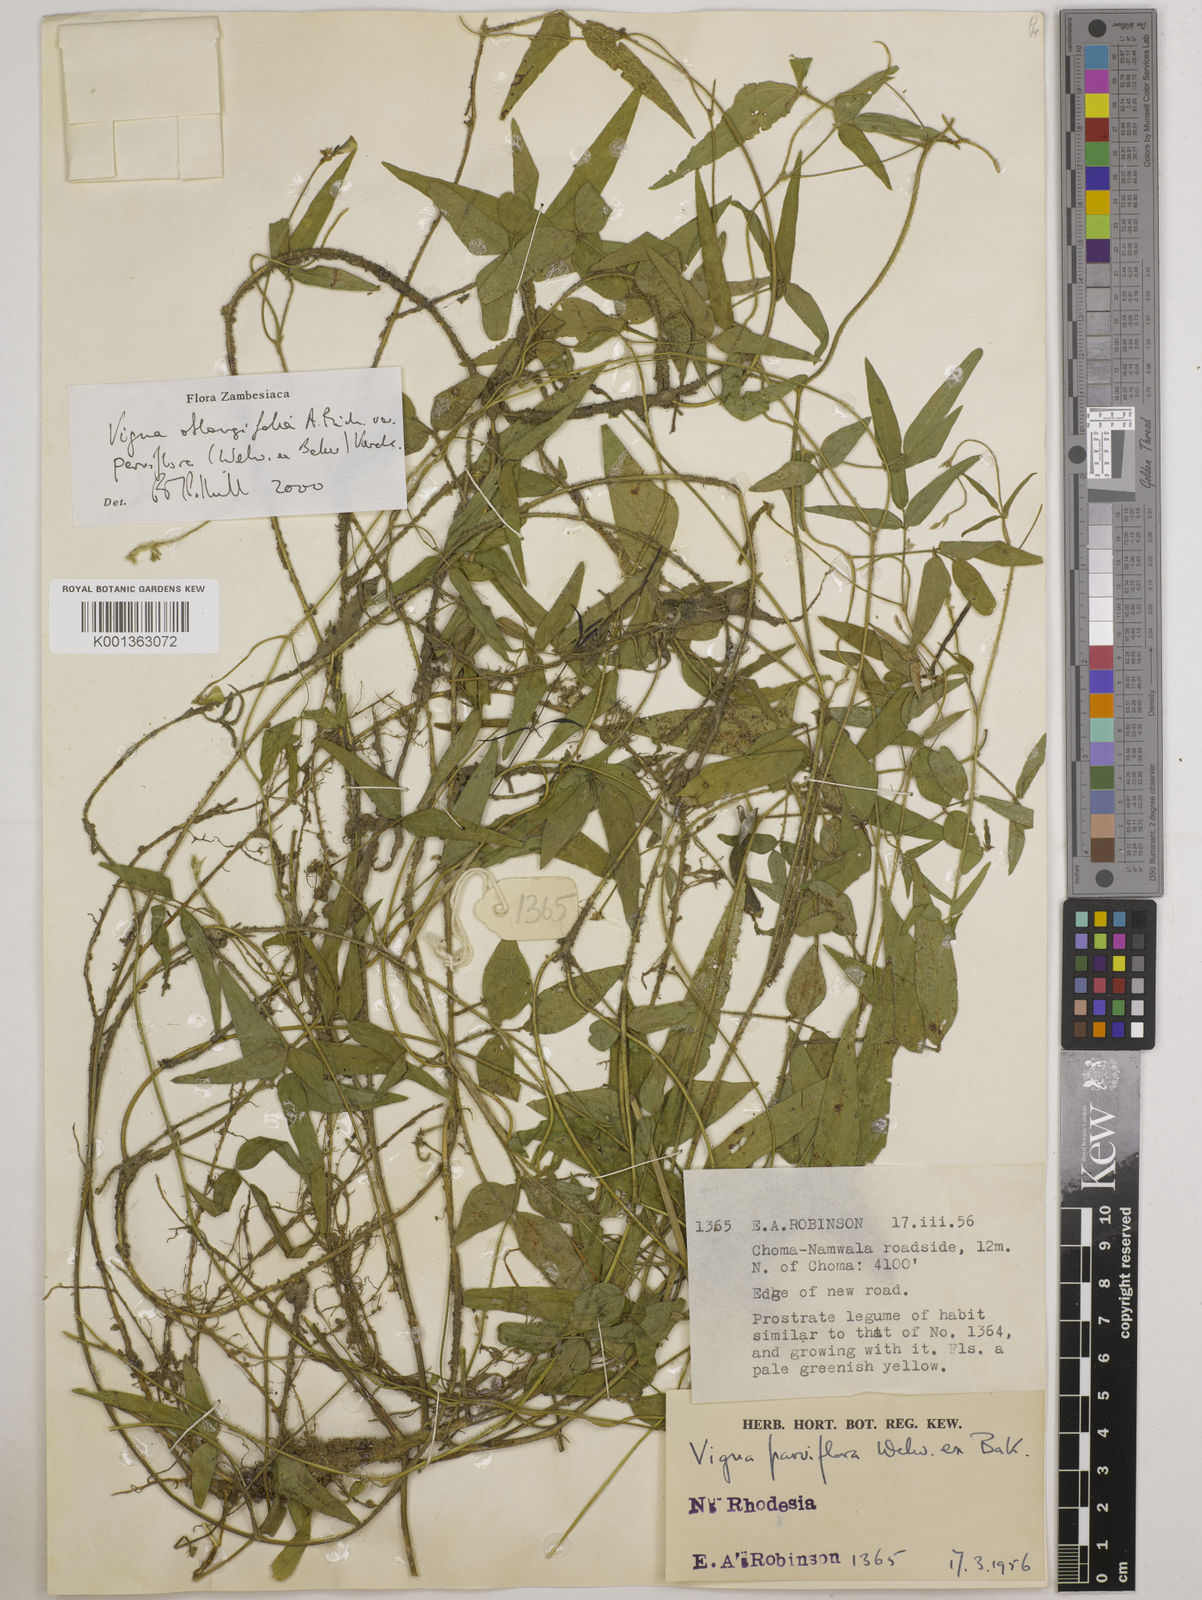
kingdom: Plantae
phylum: Tracheophyta
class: Magnoliopsida
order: Fabales
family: Fabaceae
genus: Vigna
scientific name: Vigna
